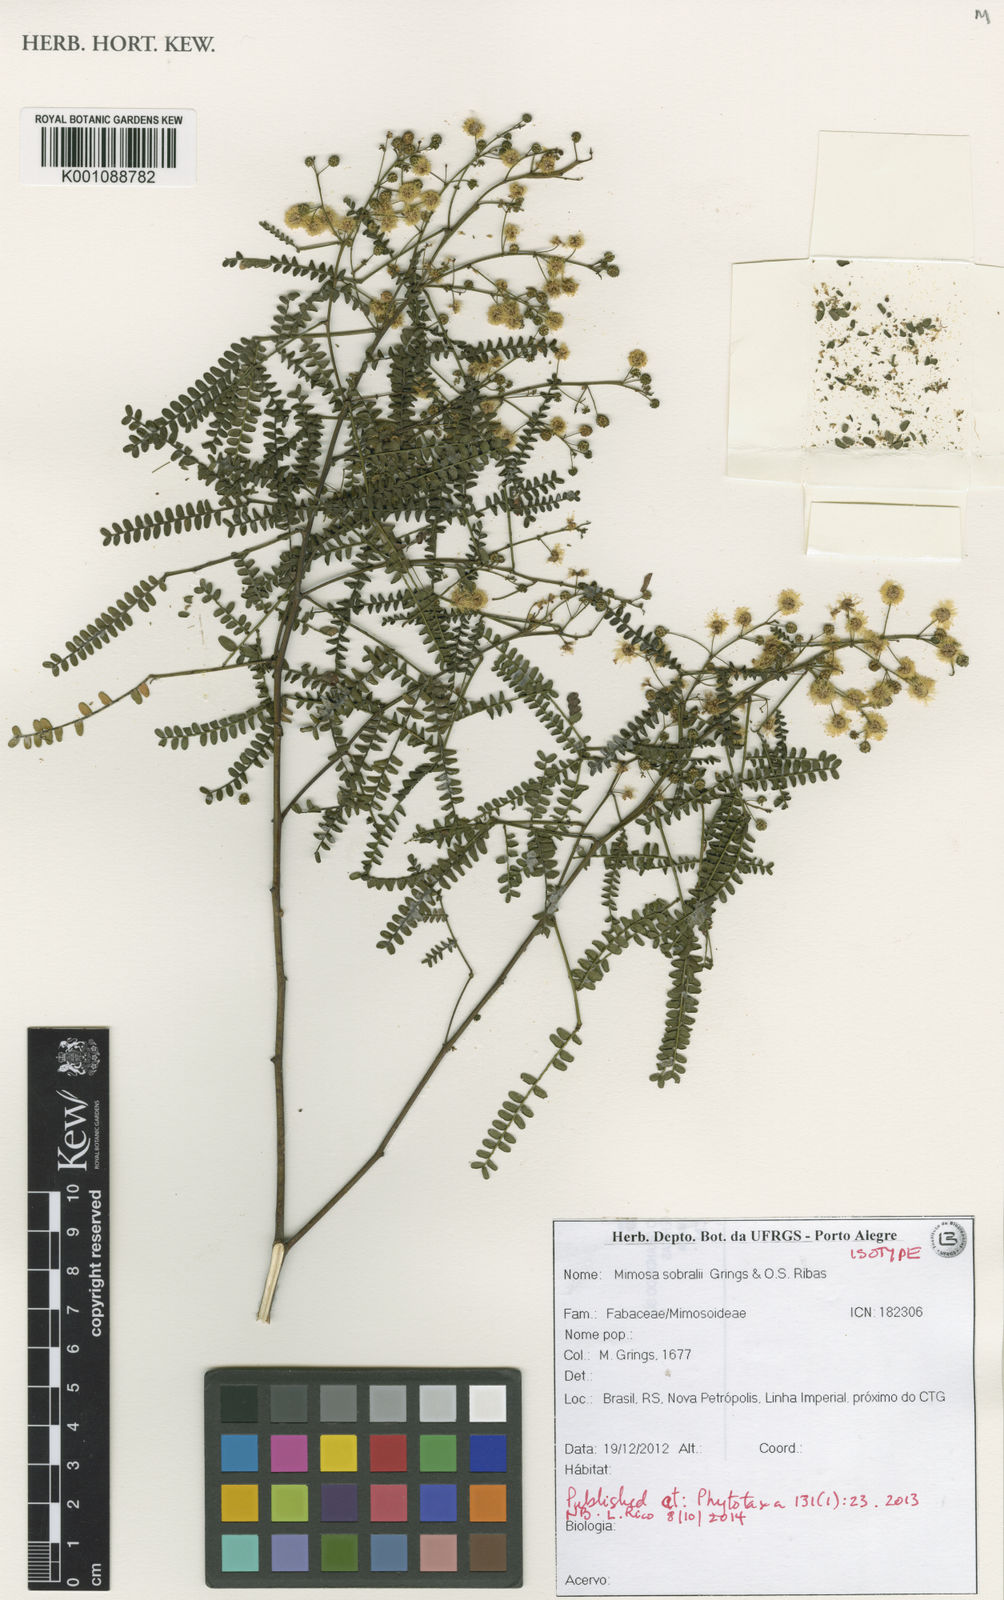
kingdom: Plantae
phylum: Tracheophyta
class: Magnoliopsida
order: Fabales
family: Fabaceae
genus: Mimosa
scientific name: Mimosa sobralii
